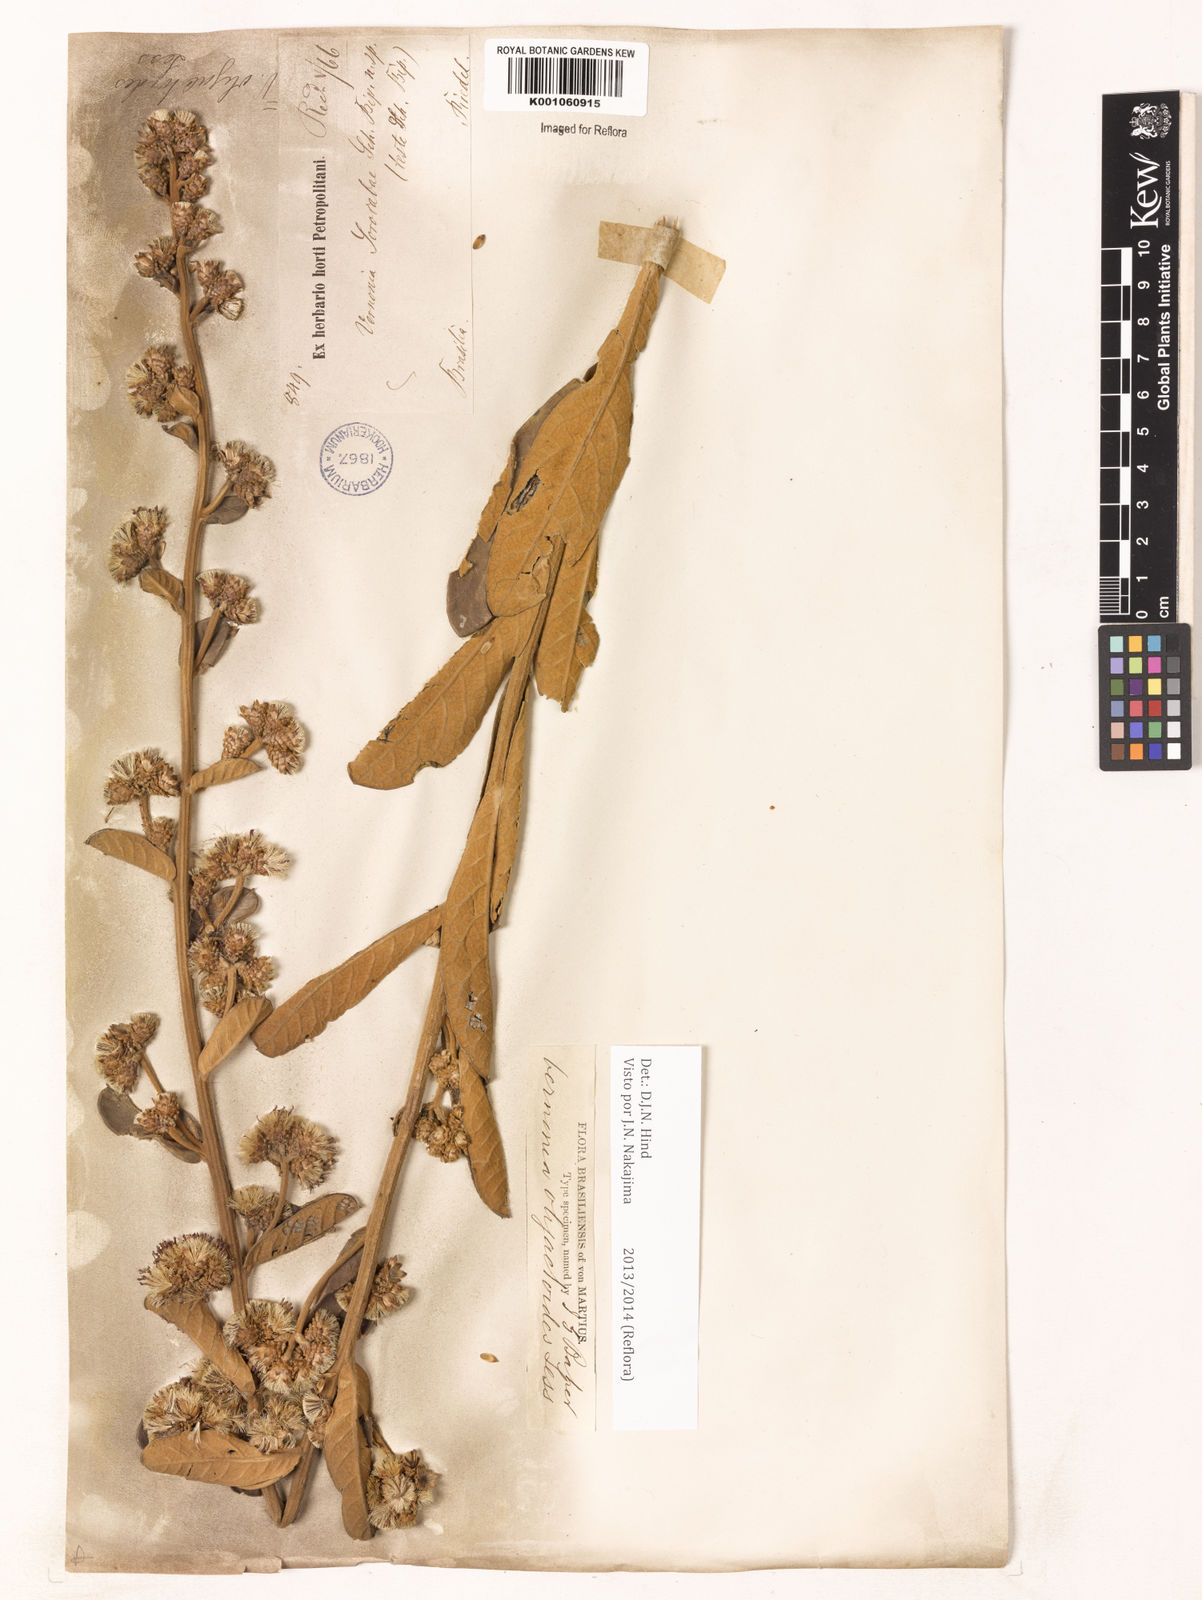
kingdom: Plantae
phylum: Tracheophyta
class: Magnoliopsida
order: Asterales
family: Asteraceae
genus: Vernonanthura
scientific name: Vernonanthura oligactoides
